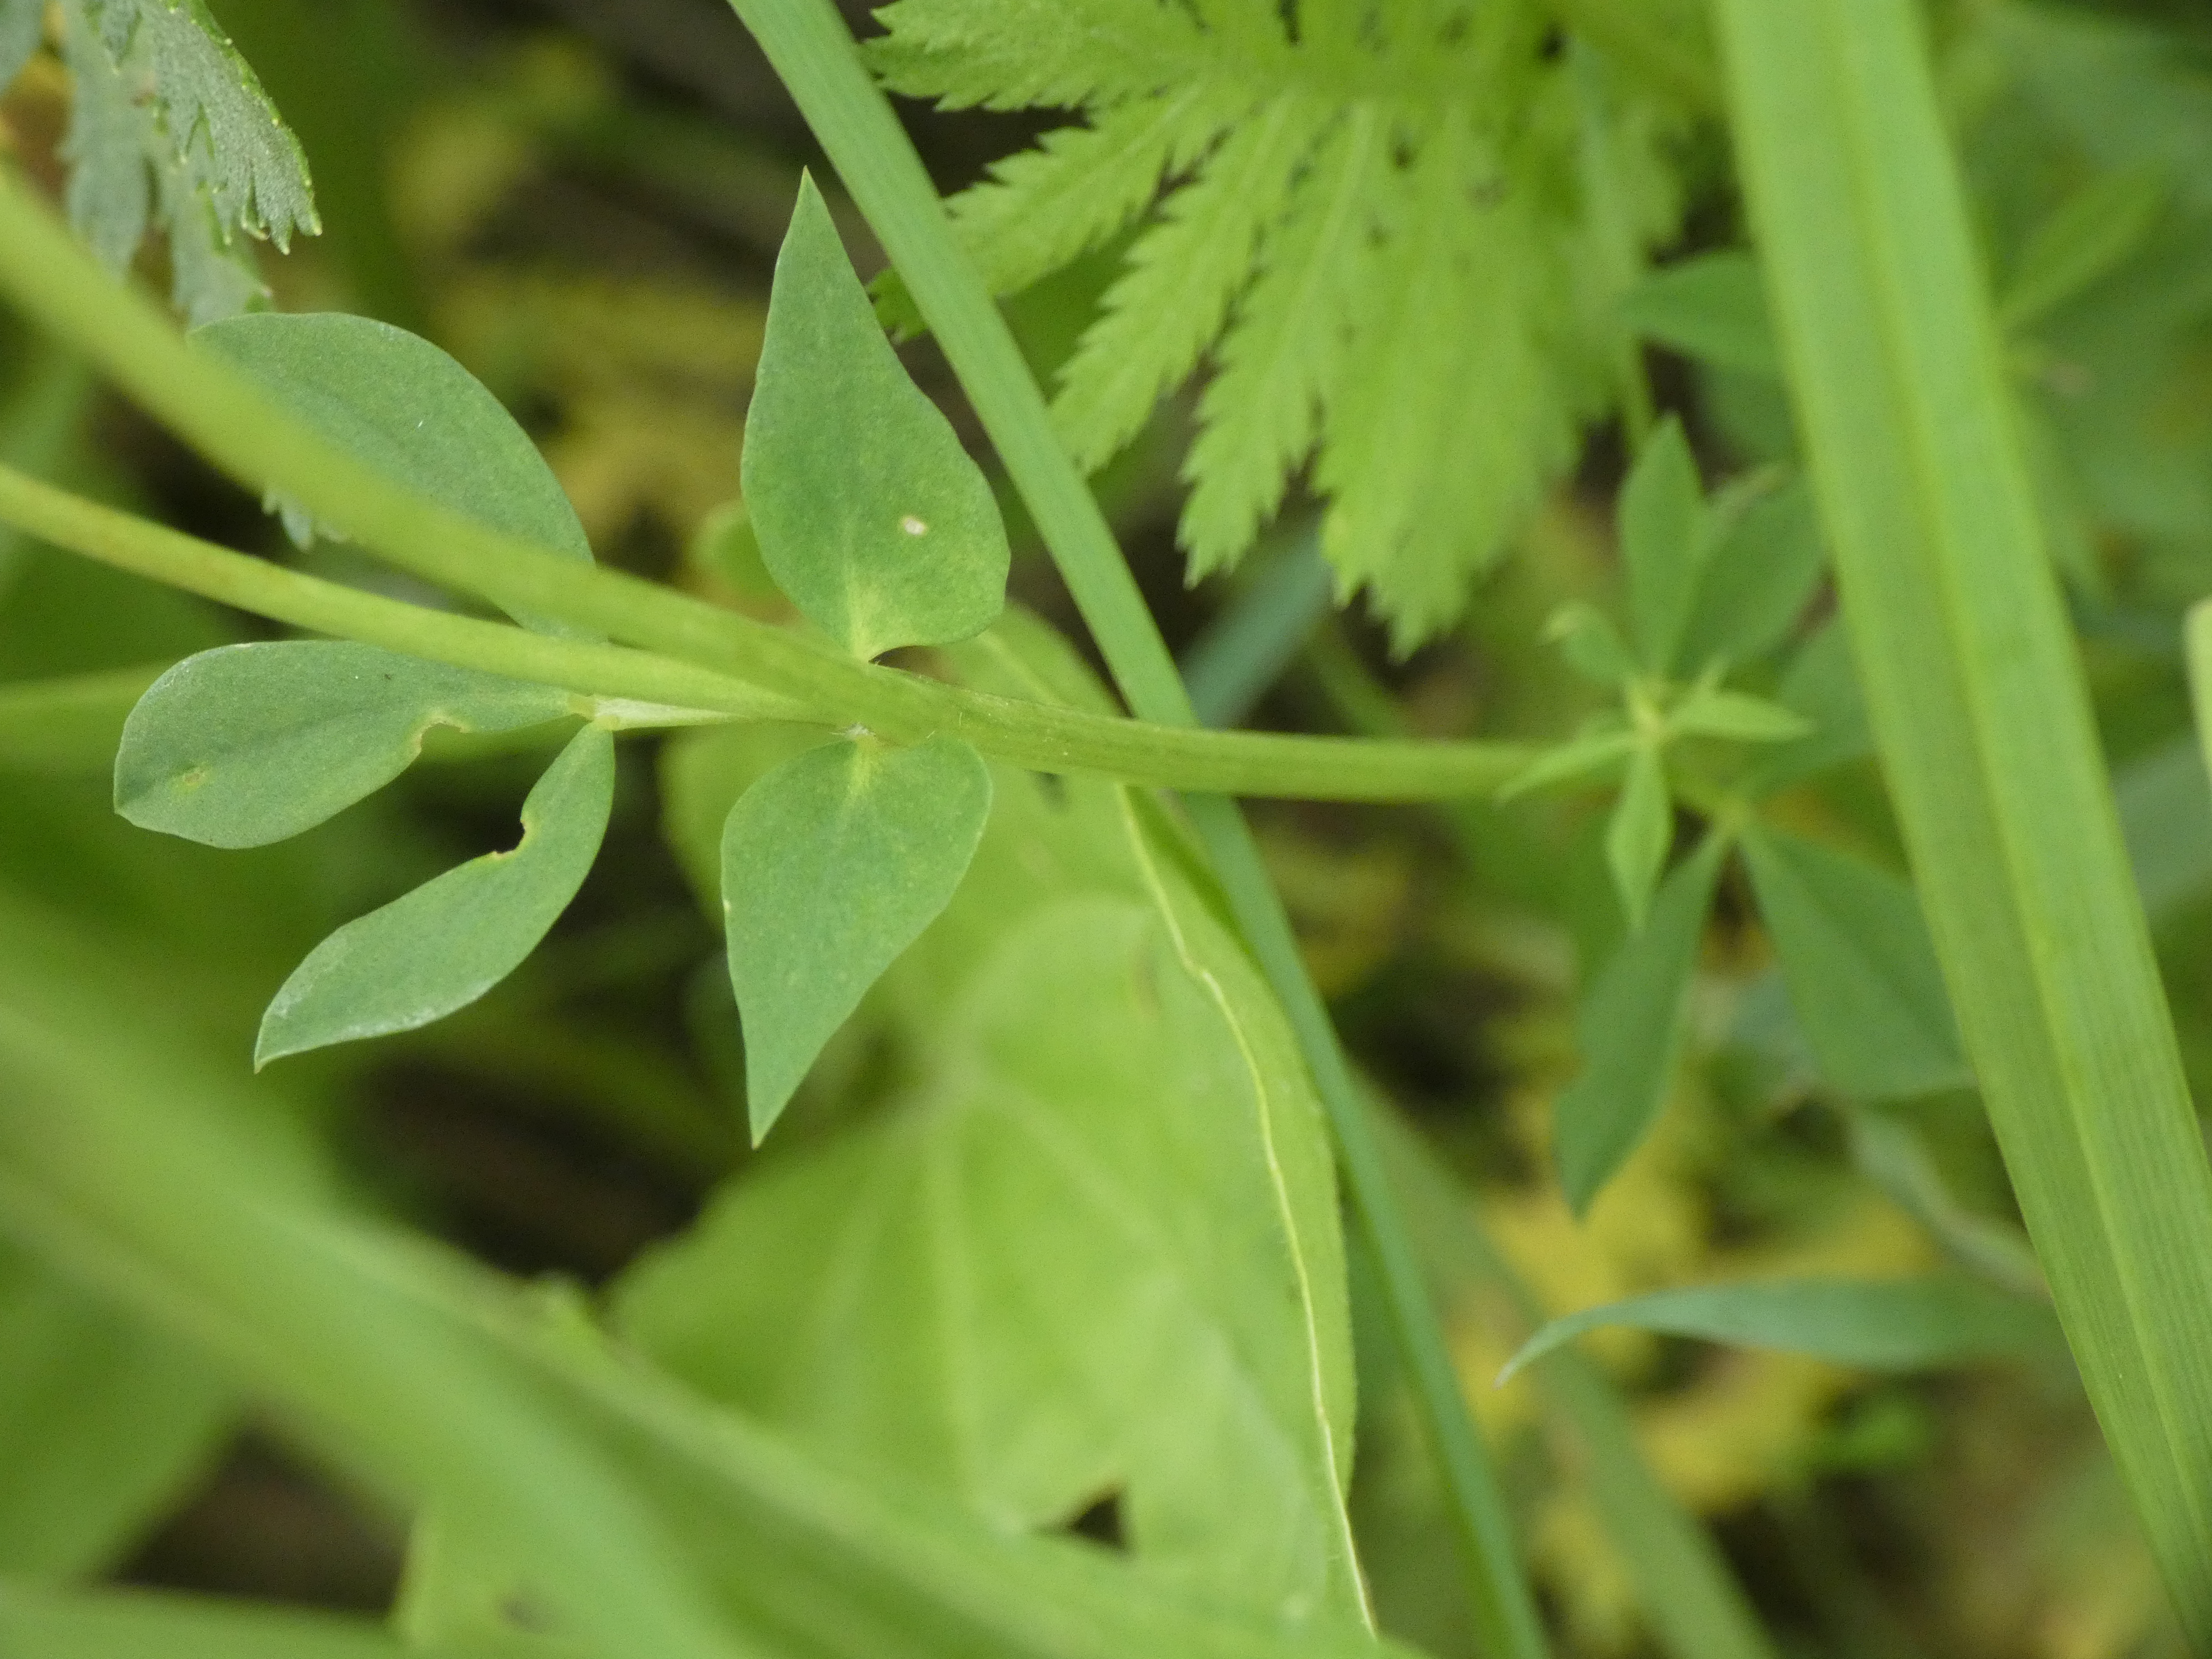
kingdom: Plantae
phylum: Tracheophyta
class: Magnoliopsida
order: Fabales
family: Fabaceae
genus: Lotus
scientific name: Lotus corniculatus
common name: Almindelig kællingetand
